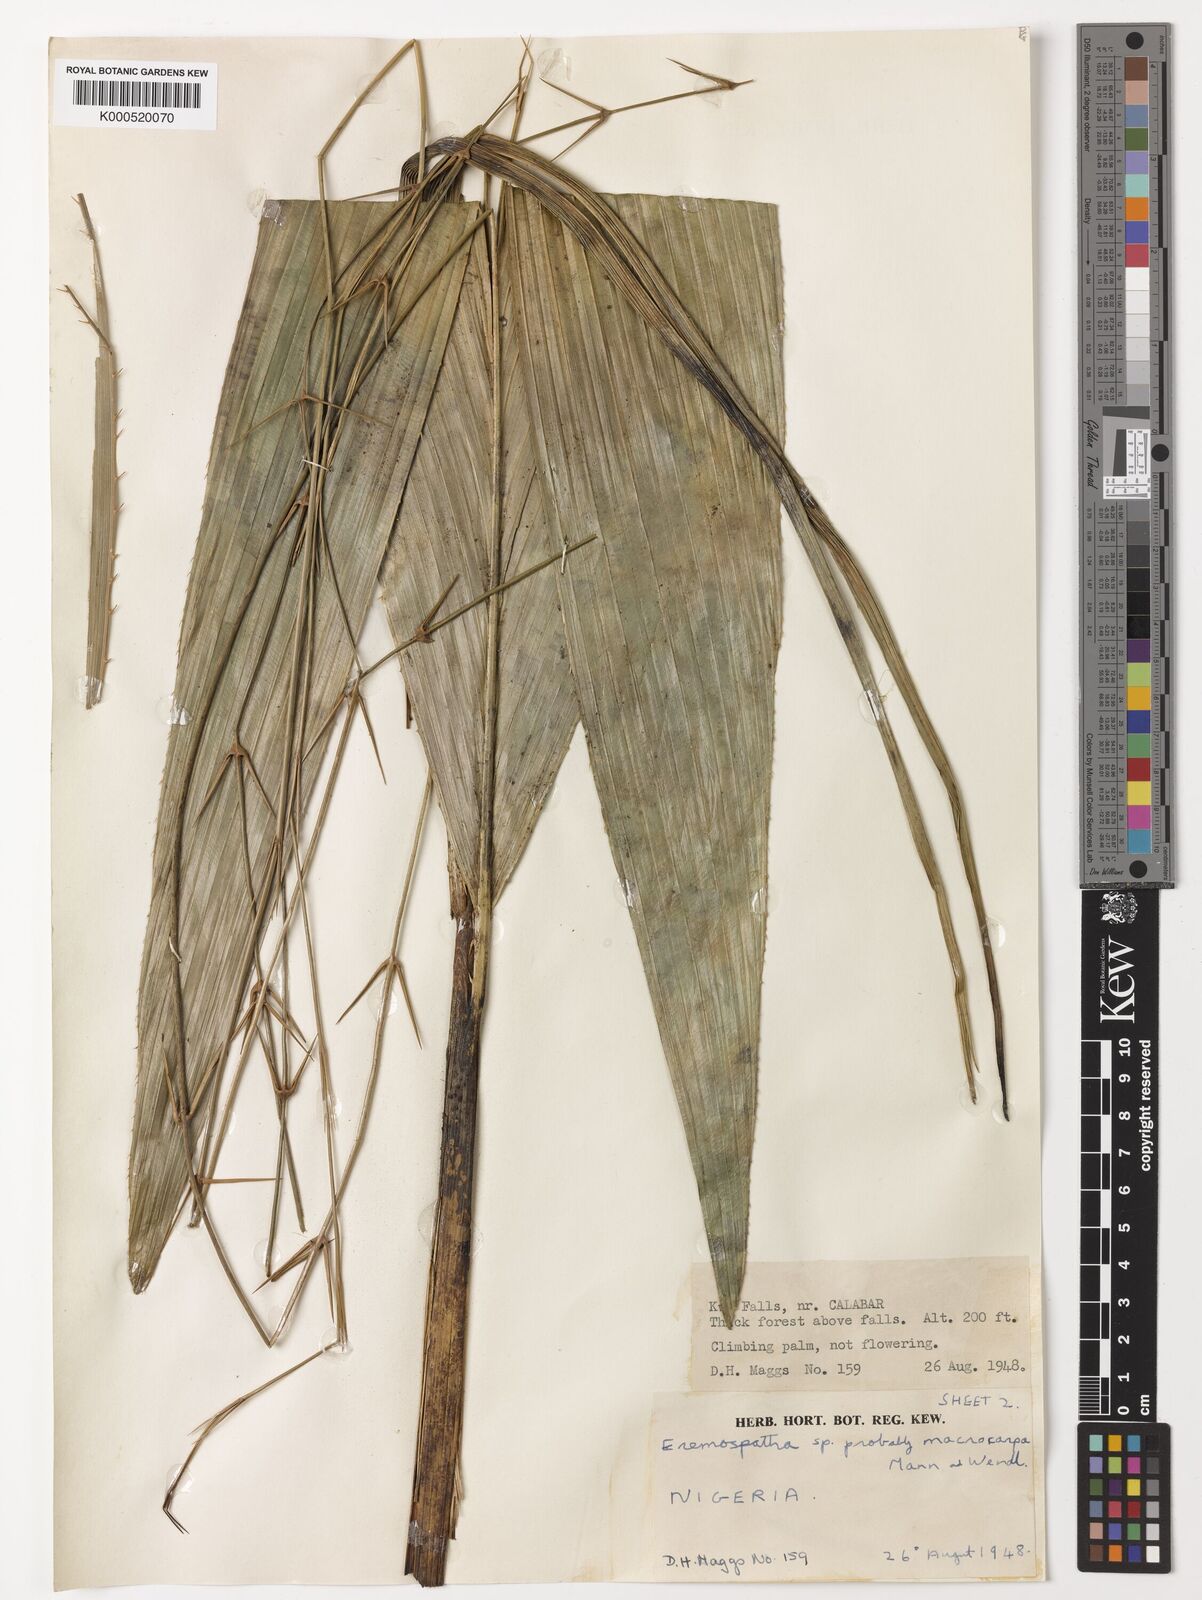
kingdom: Plantae
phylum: Tracheophyta
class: Liliopsida
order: Arecales
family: Arecaceae
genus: Eremospatha
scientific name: Eremospatha
